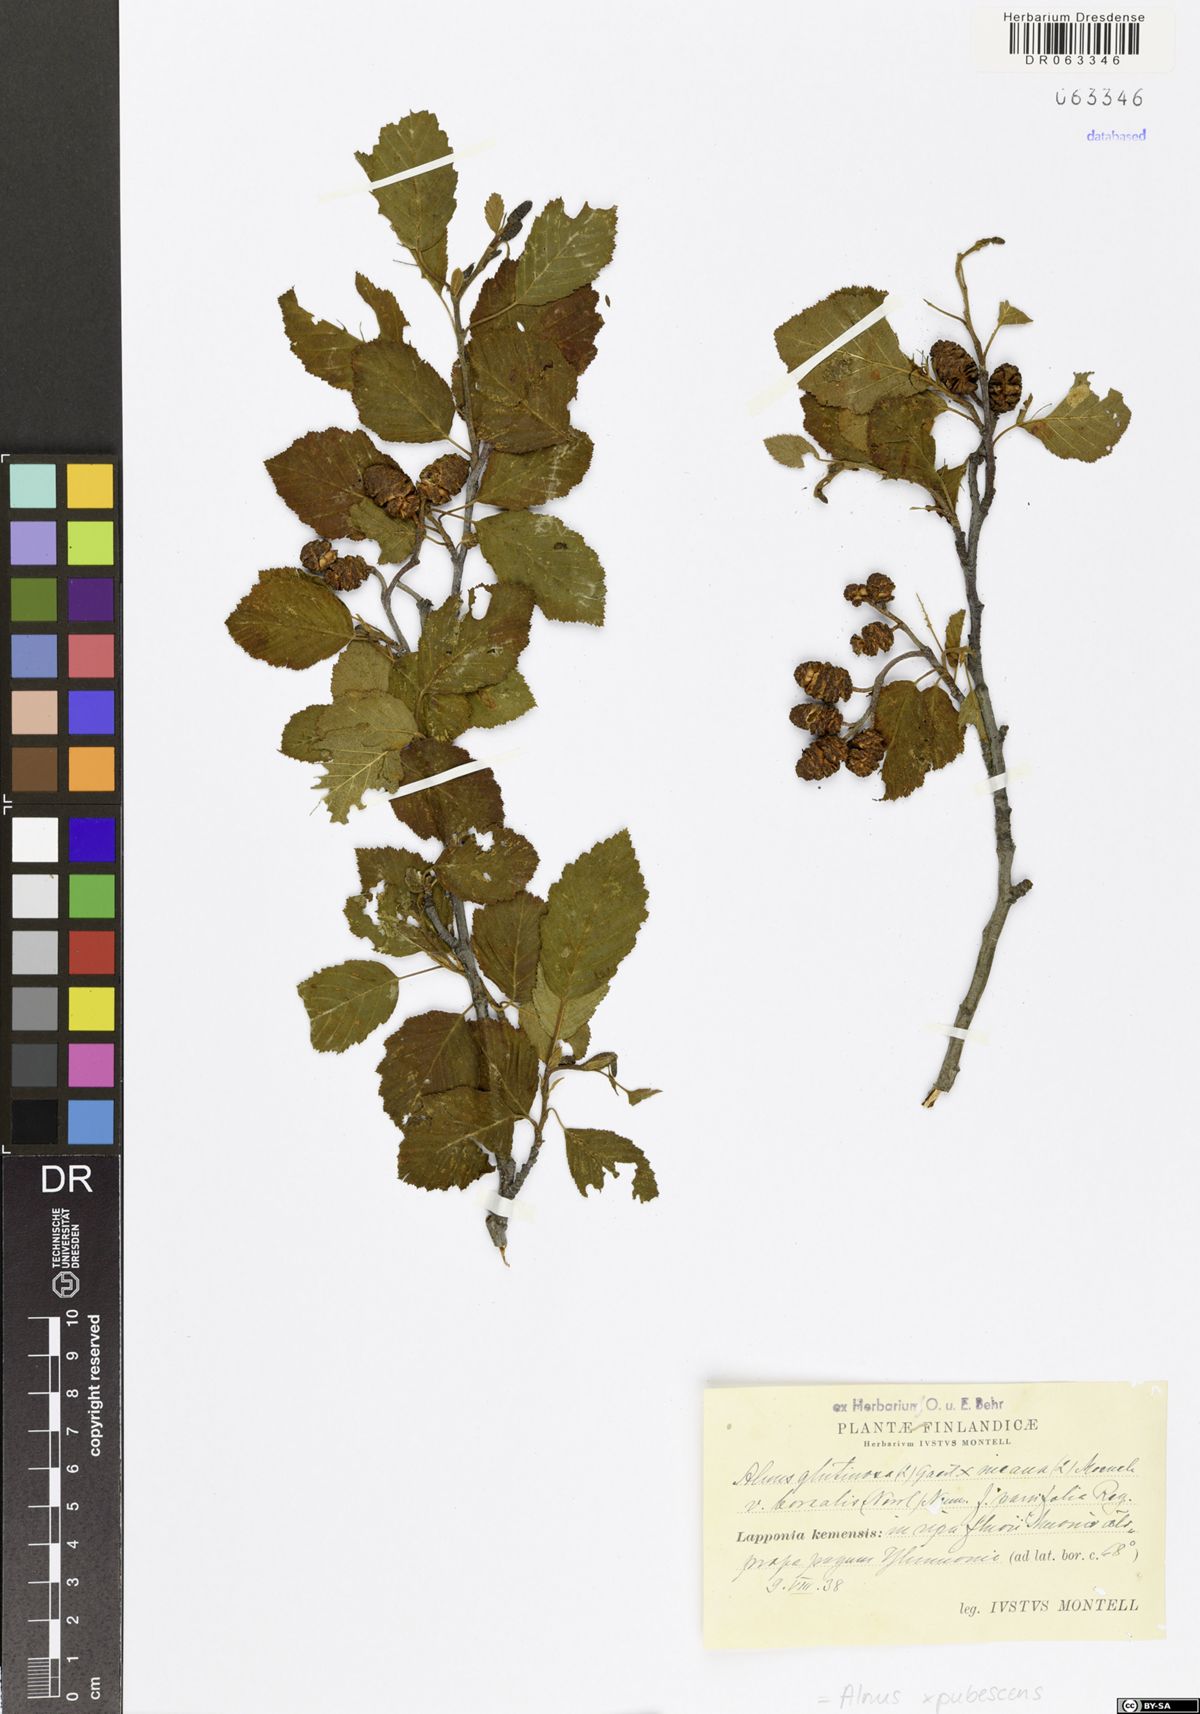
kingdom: Plantae
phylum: Tracheophyta
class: Magnoliopsida
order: Fagales
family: Betulaceae
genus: Alnus
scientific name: Alnus pubescens
